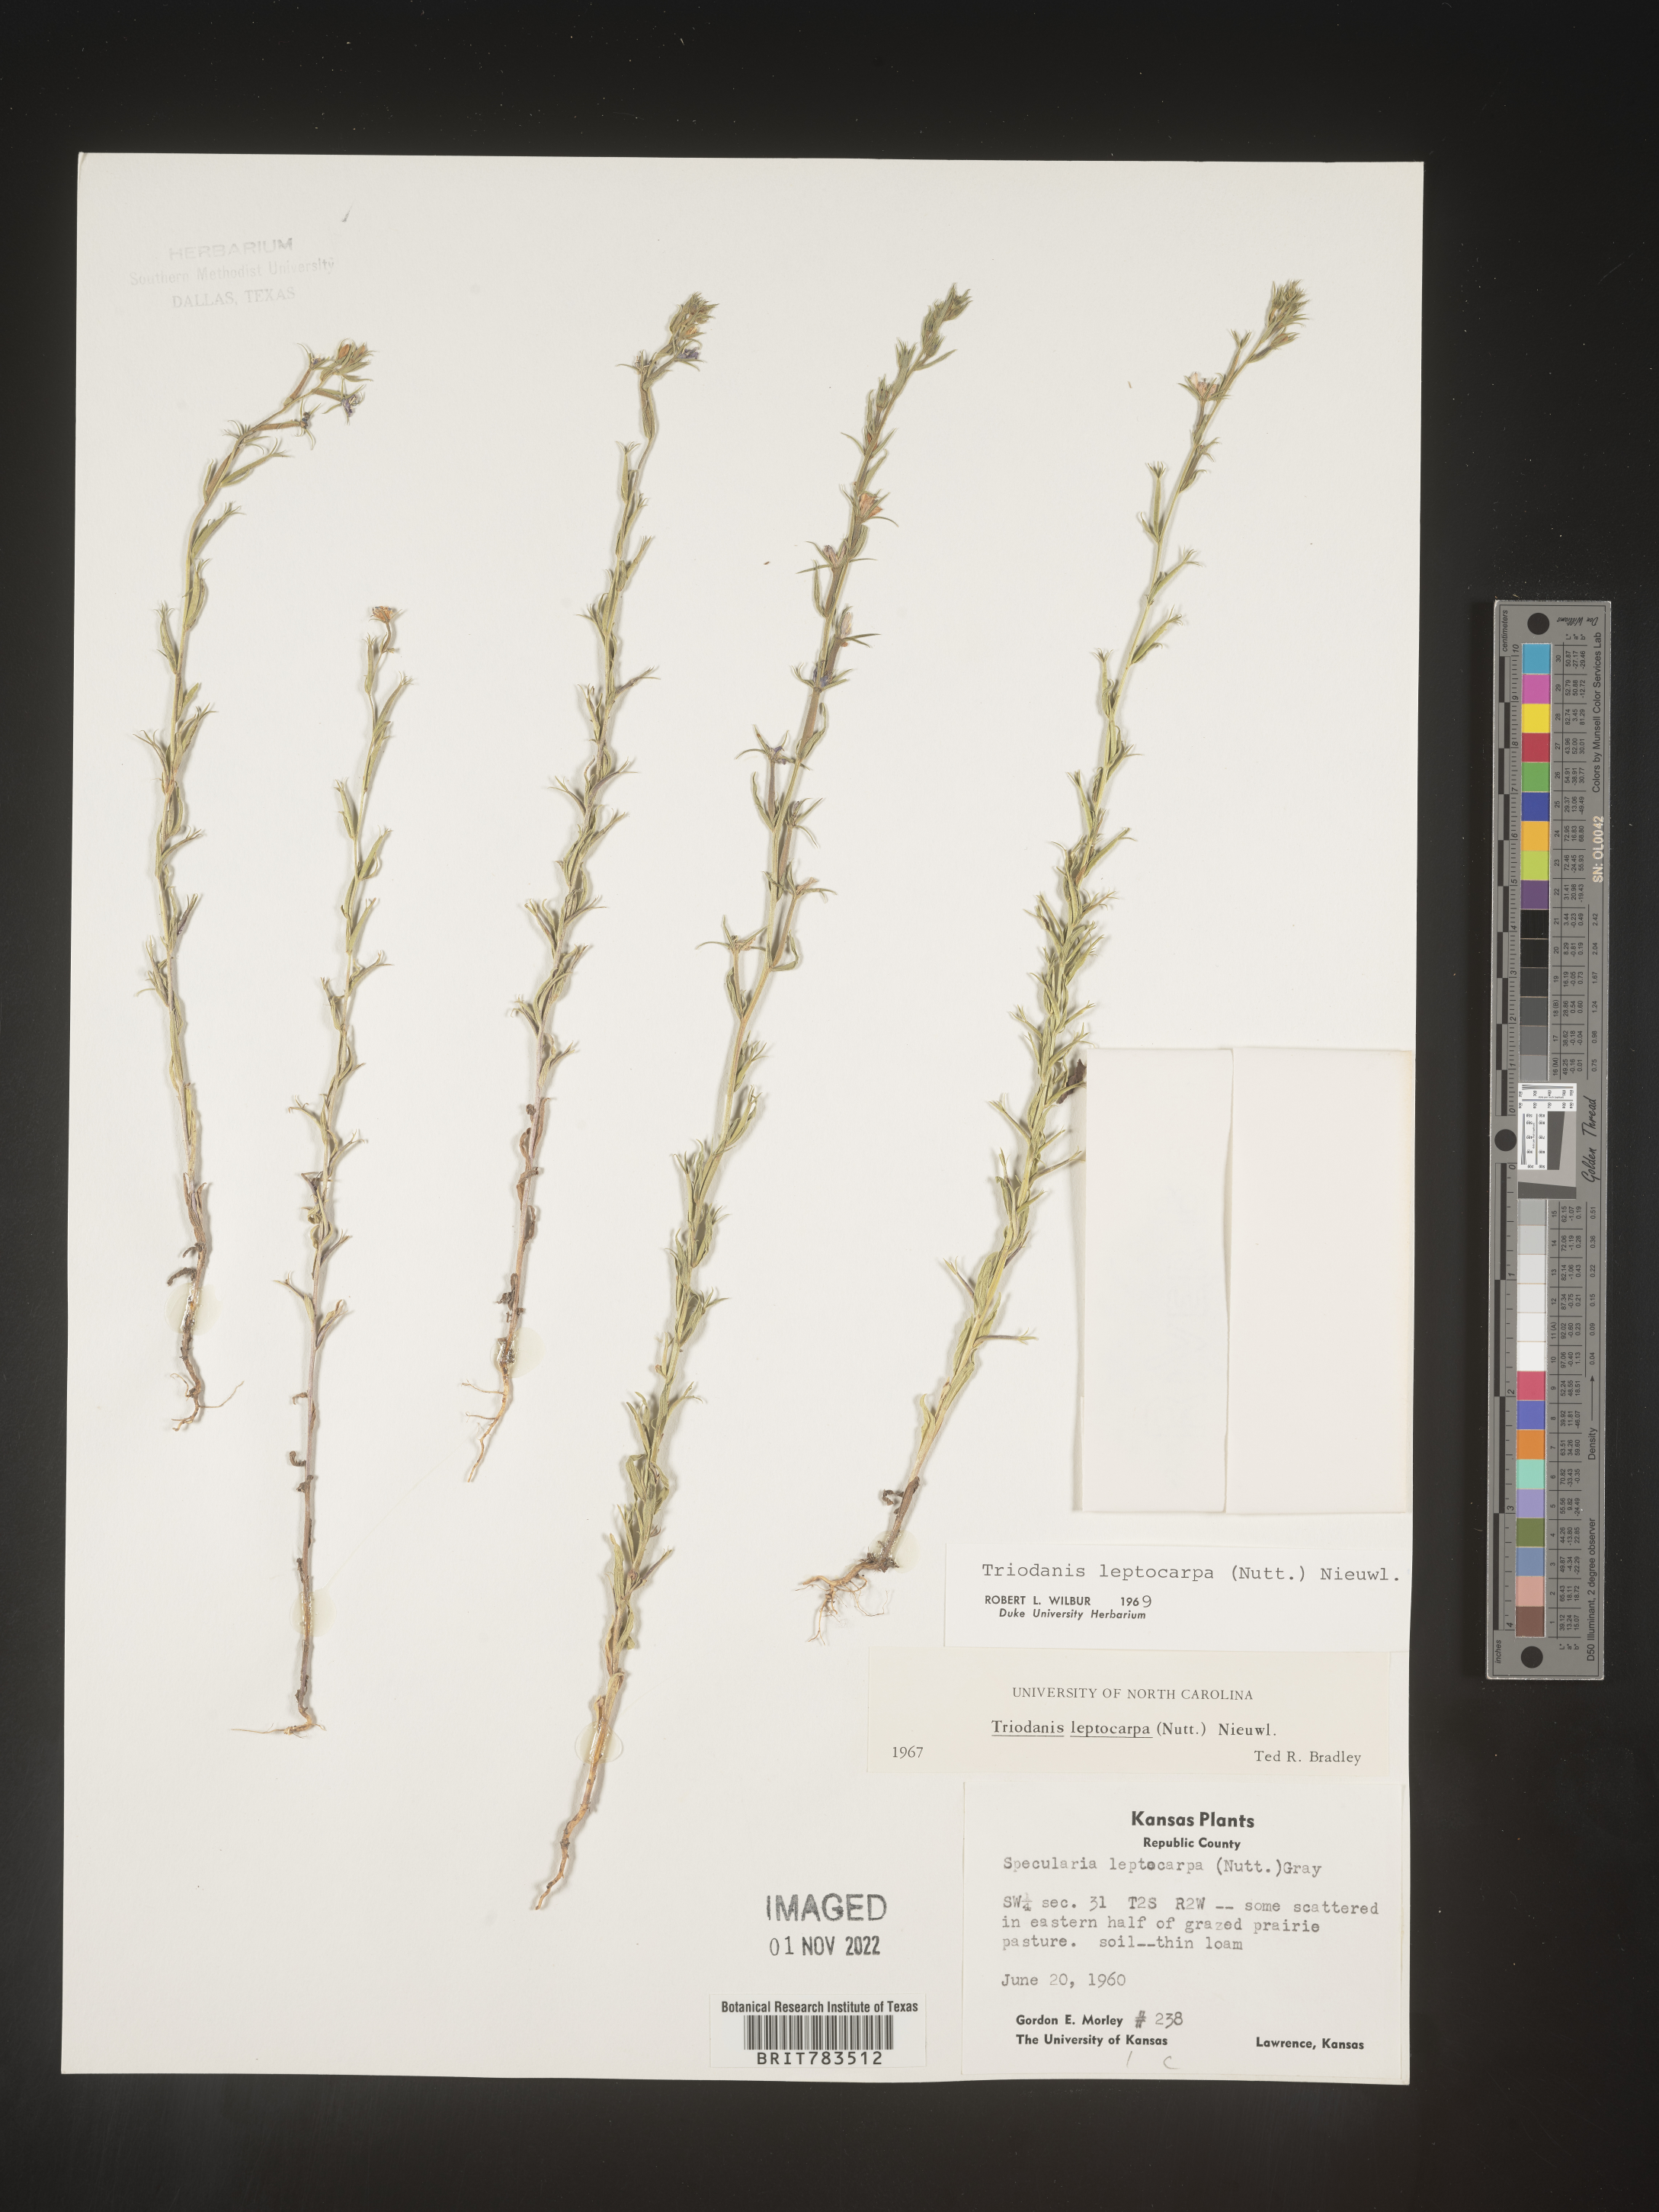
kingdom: Plantae
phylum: Tracheophyta
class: Magnoliopsida
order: Asterales
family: Campanulaceae
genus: Triodanis
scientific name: Triodanis leptocarpa
